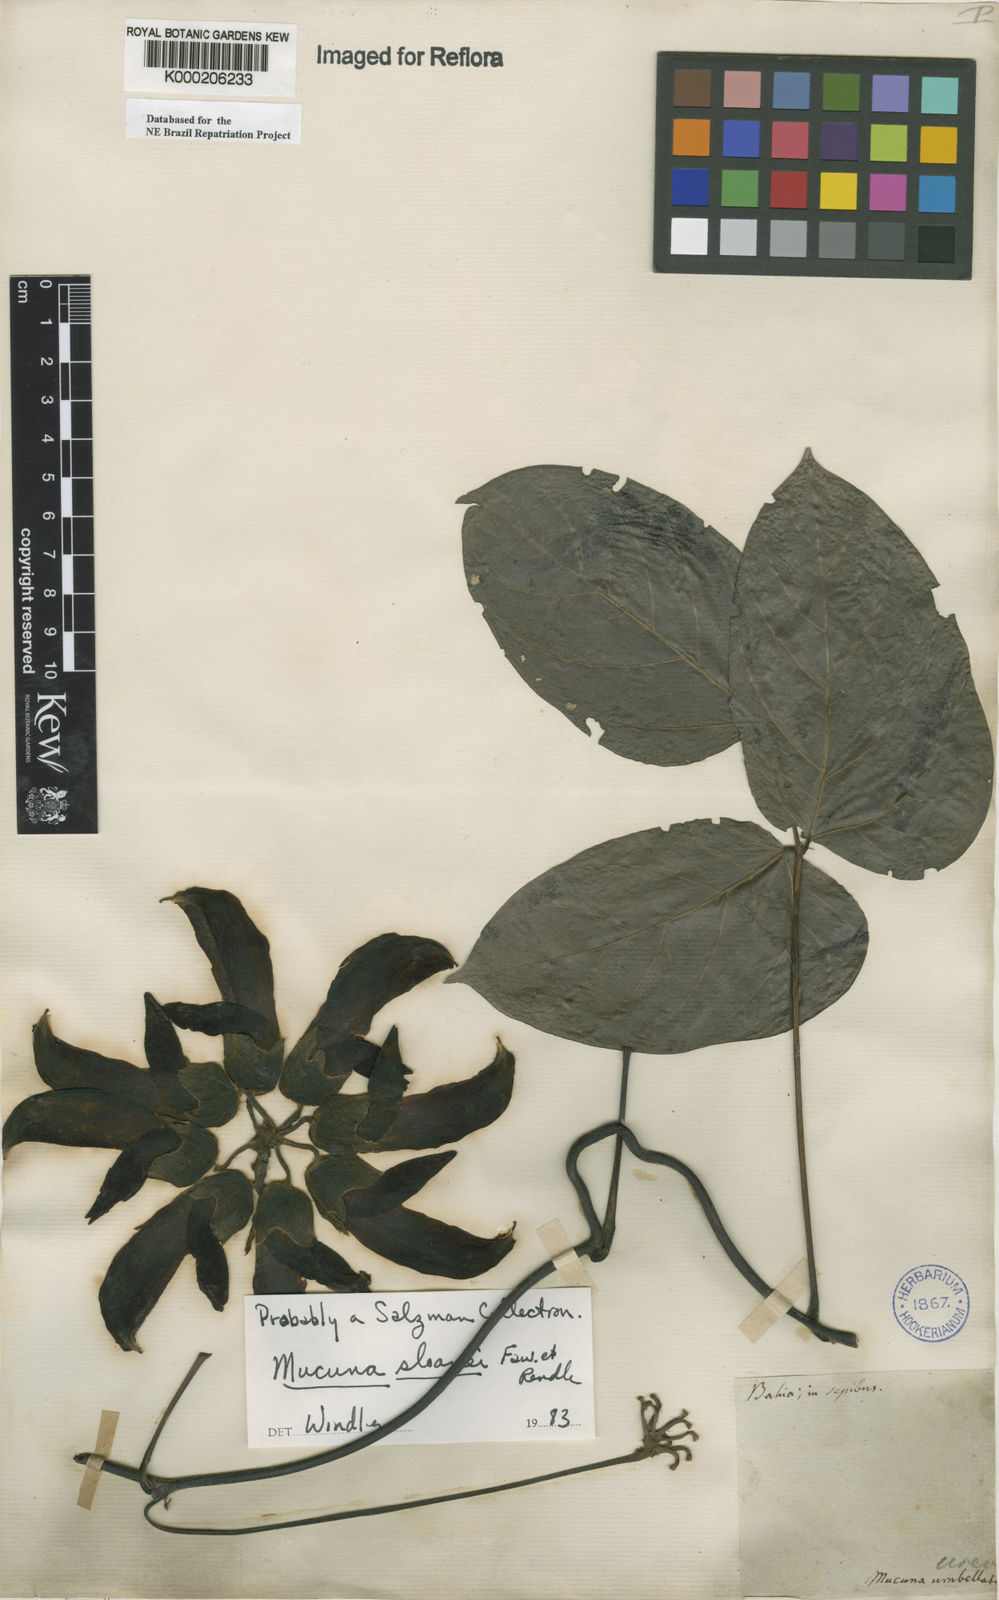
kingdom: Plantae
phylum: Tracheophyta
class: Magnoliopsida
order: Fabales
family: Fabaceae
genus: Mucuna
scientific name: Mucuna sloanei
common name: Horse-eye bean
